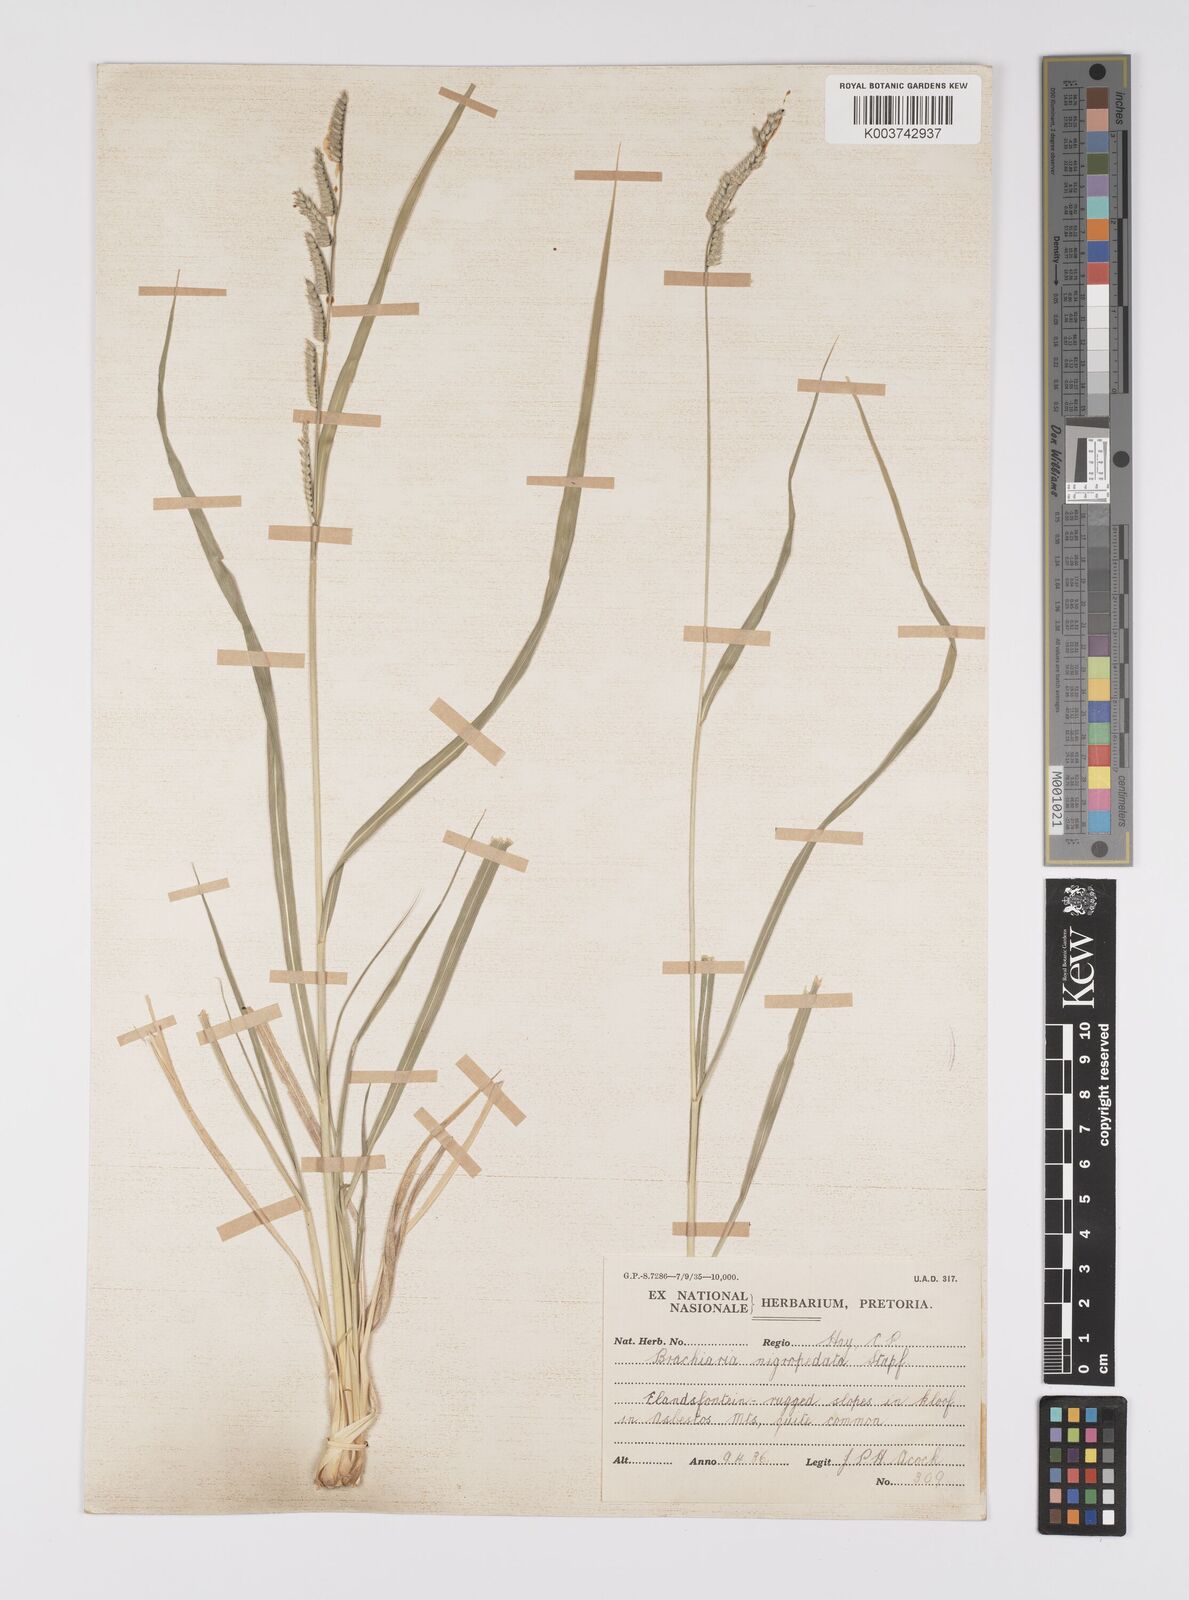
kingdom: Plantae
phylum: Tracheophyta
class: Liliopsida
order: Poales
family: Poaceae
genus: Urochloa
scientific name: Urochloa nigropedata
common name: Spotted signal grass
